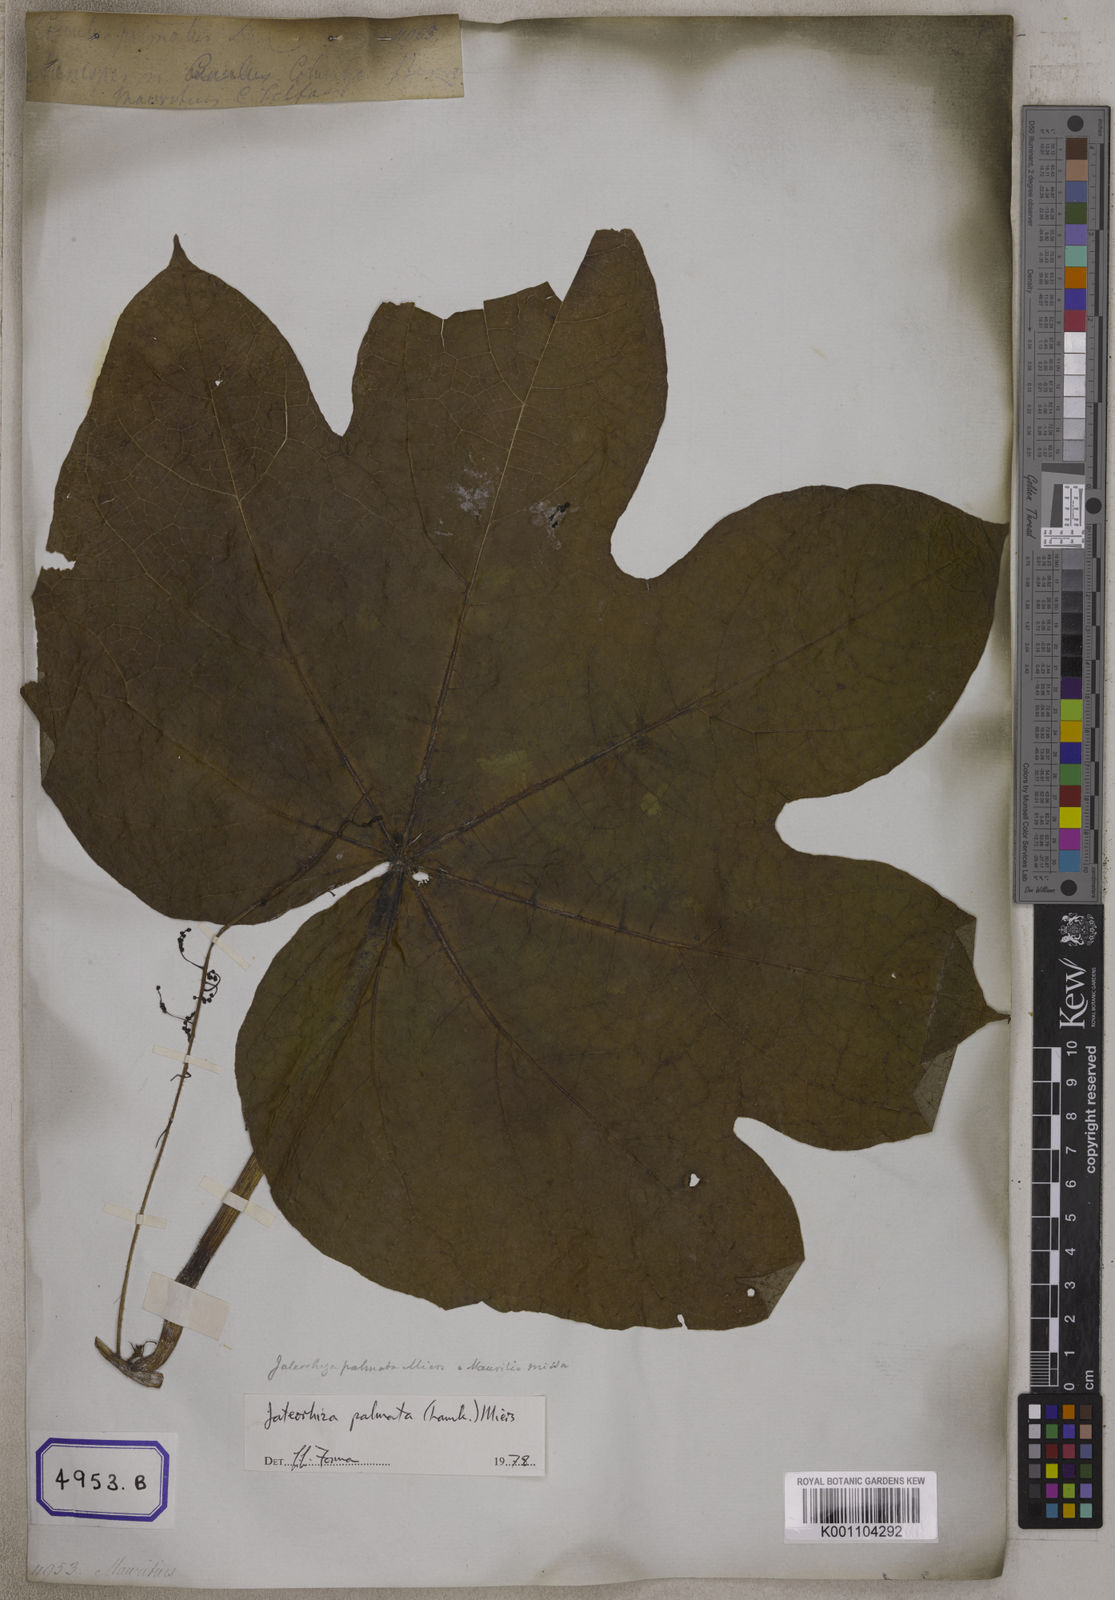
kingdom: Plantae
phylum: Tracheophyta
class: Magnoliopsida
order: Ranunculales
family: Menispermaceae
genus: Jateorhiza
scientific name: Jateorhiza palmata
